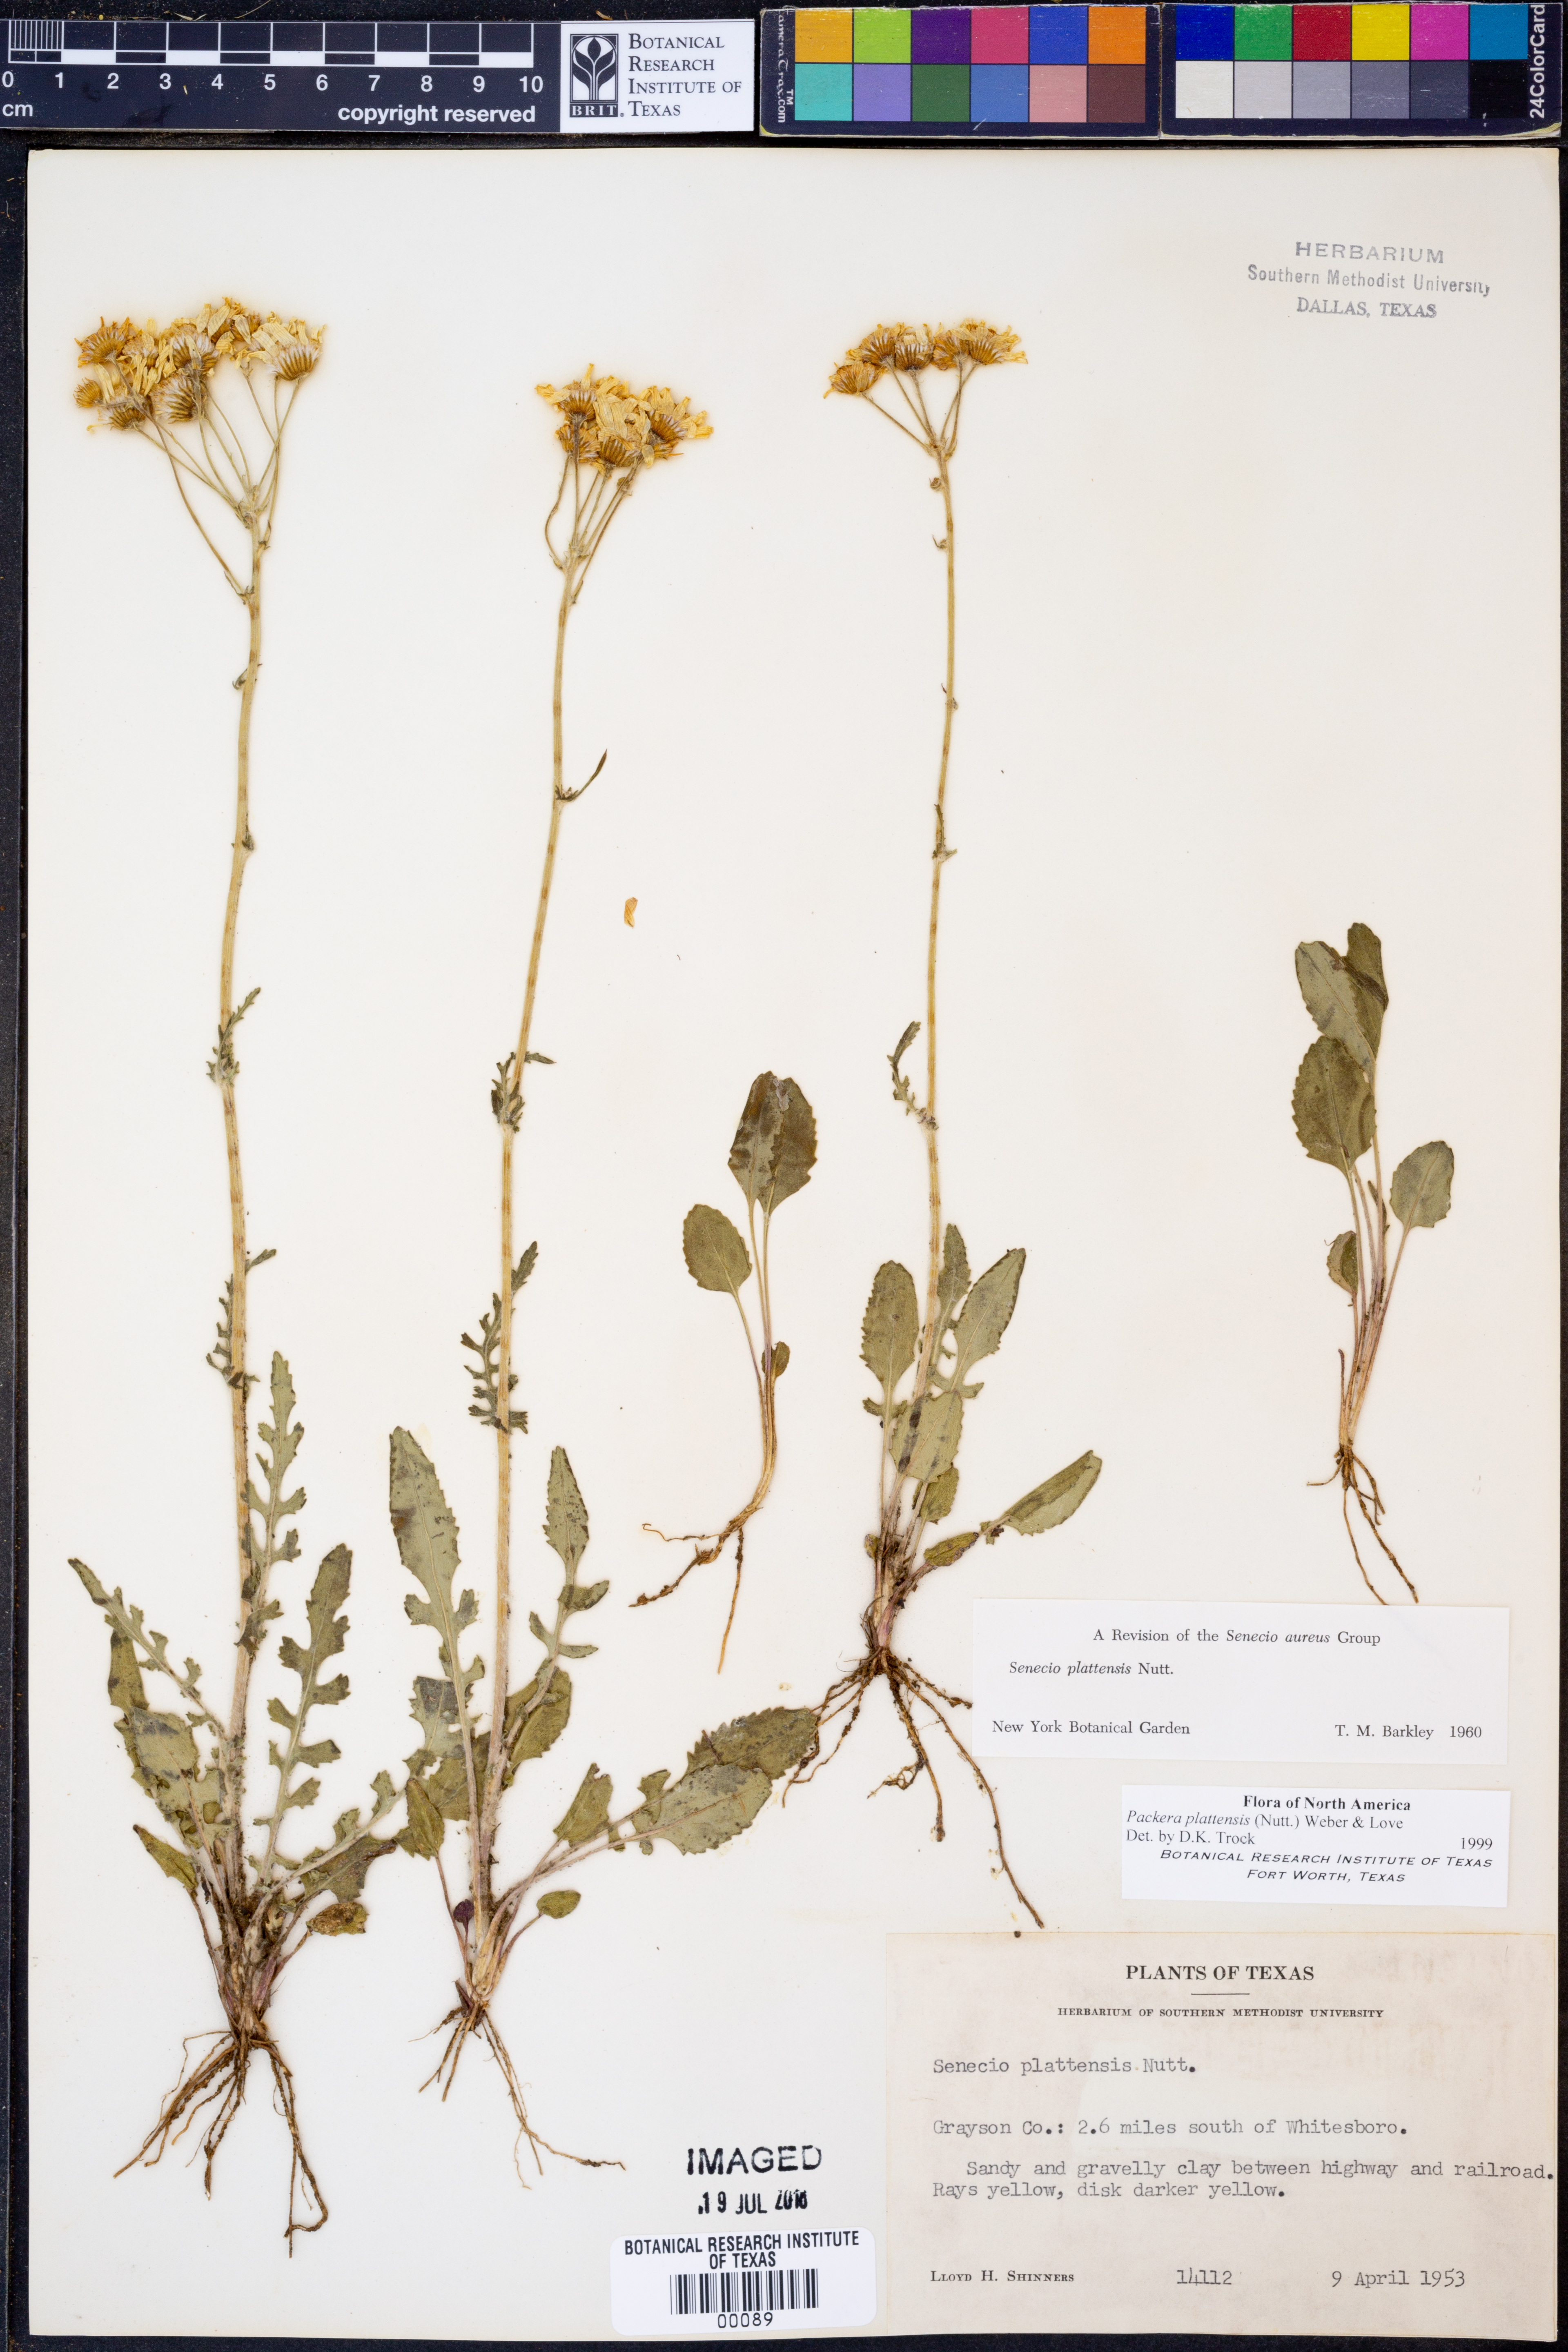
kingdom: Plantae
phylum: Tracheophyta
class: Magnoliopsida
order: Asterales
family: Asteraceae
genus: Packera
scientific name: Packera plattensis
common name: Prairie groundsel
